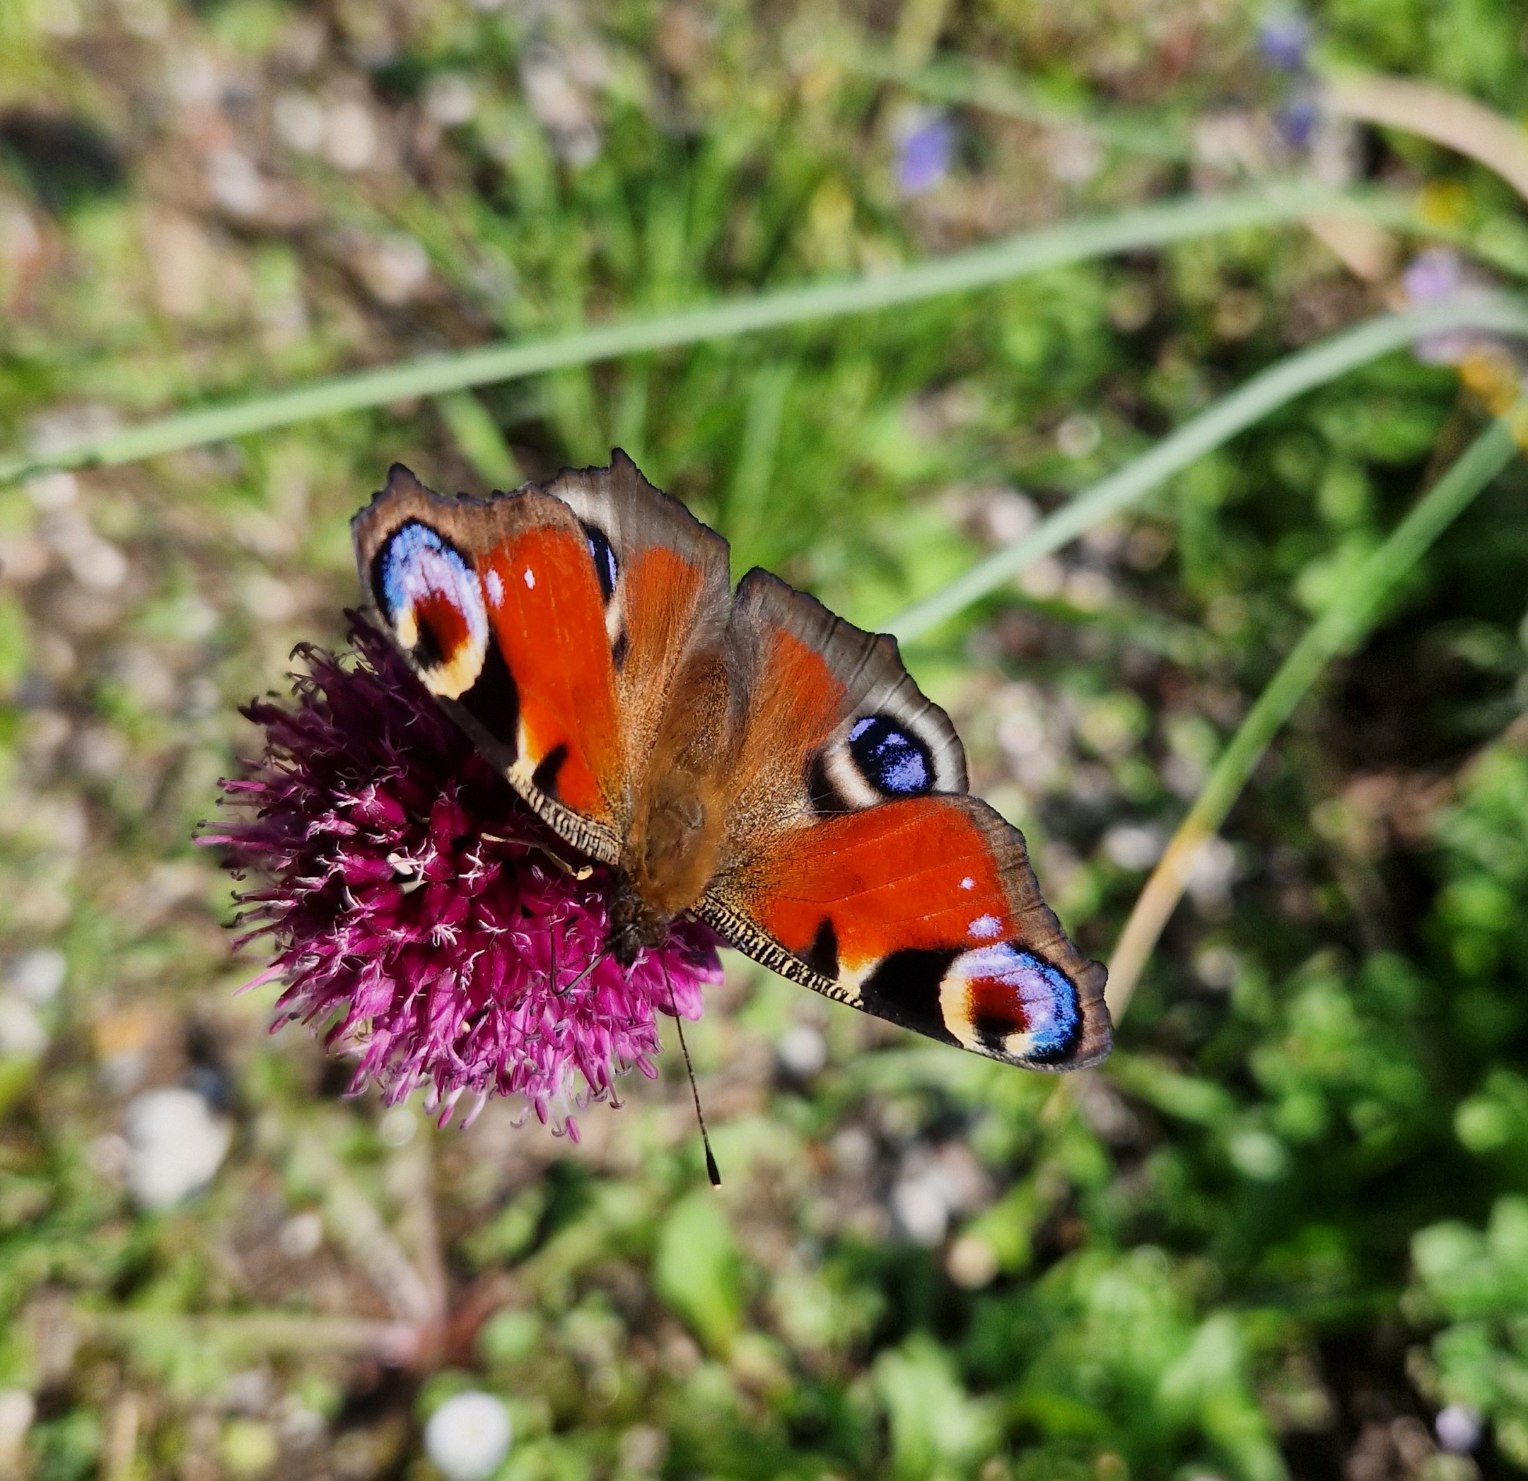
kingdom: Animalia
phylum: Arthropoda
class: Insecta
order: Lepidoptera
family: Nymphalidae
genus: Aglais
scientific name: Aglais io
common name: Dagpåfugleøje
